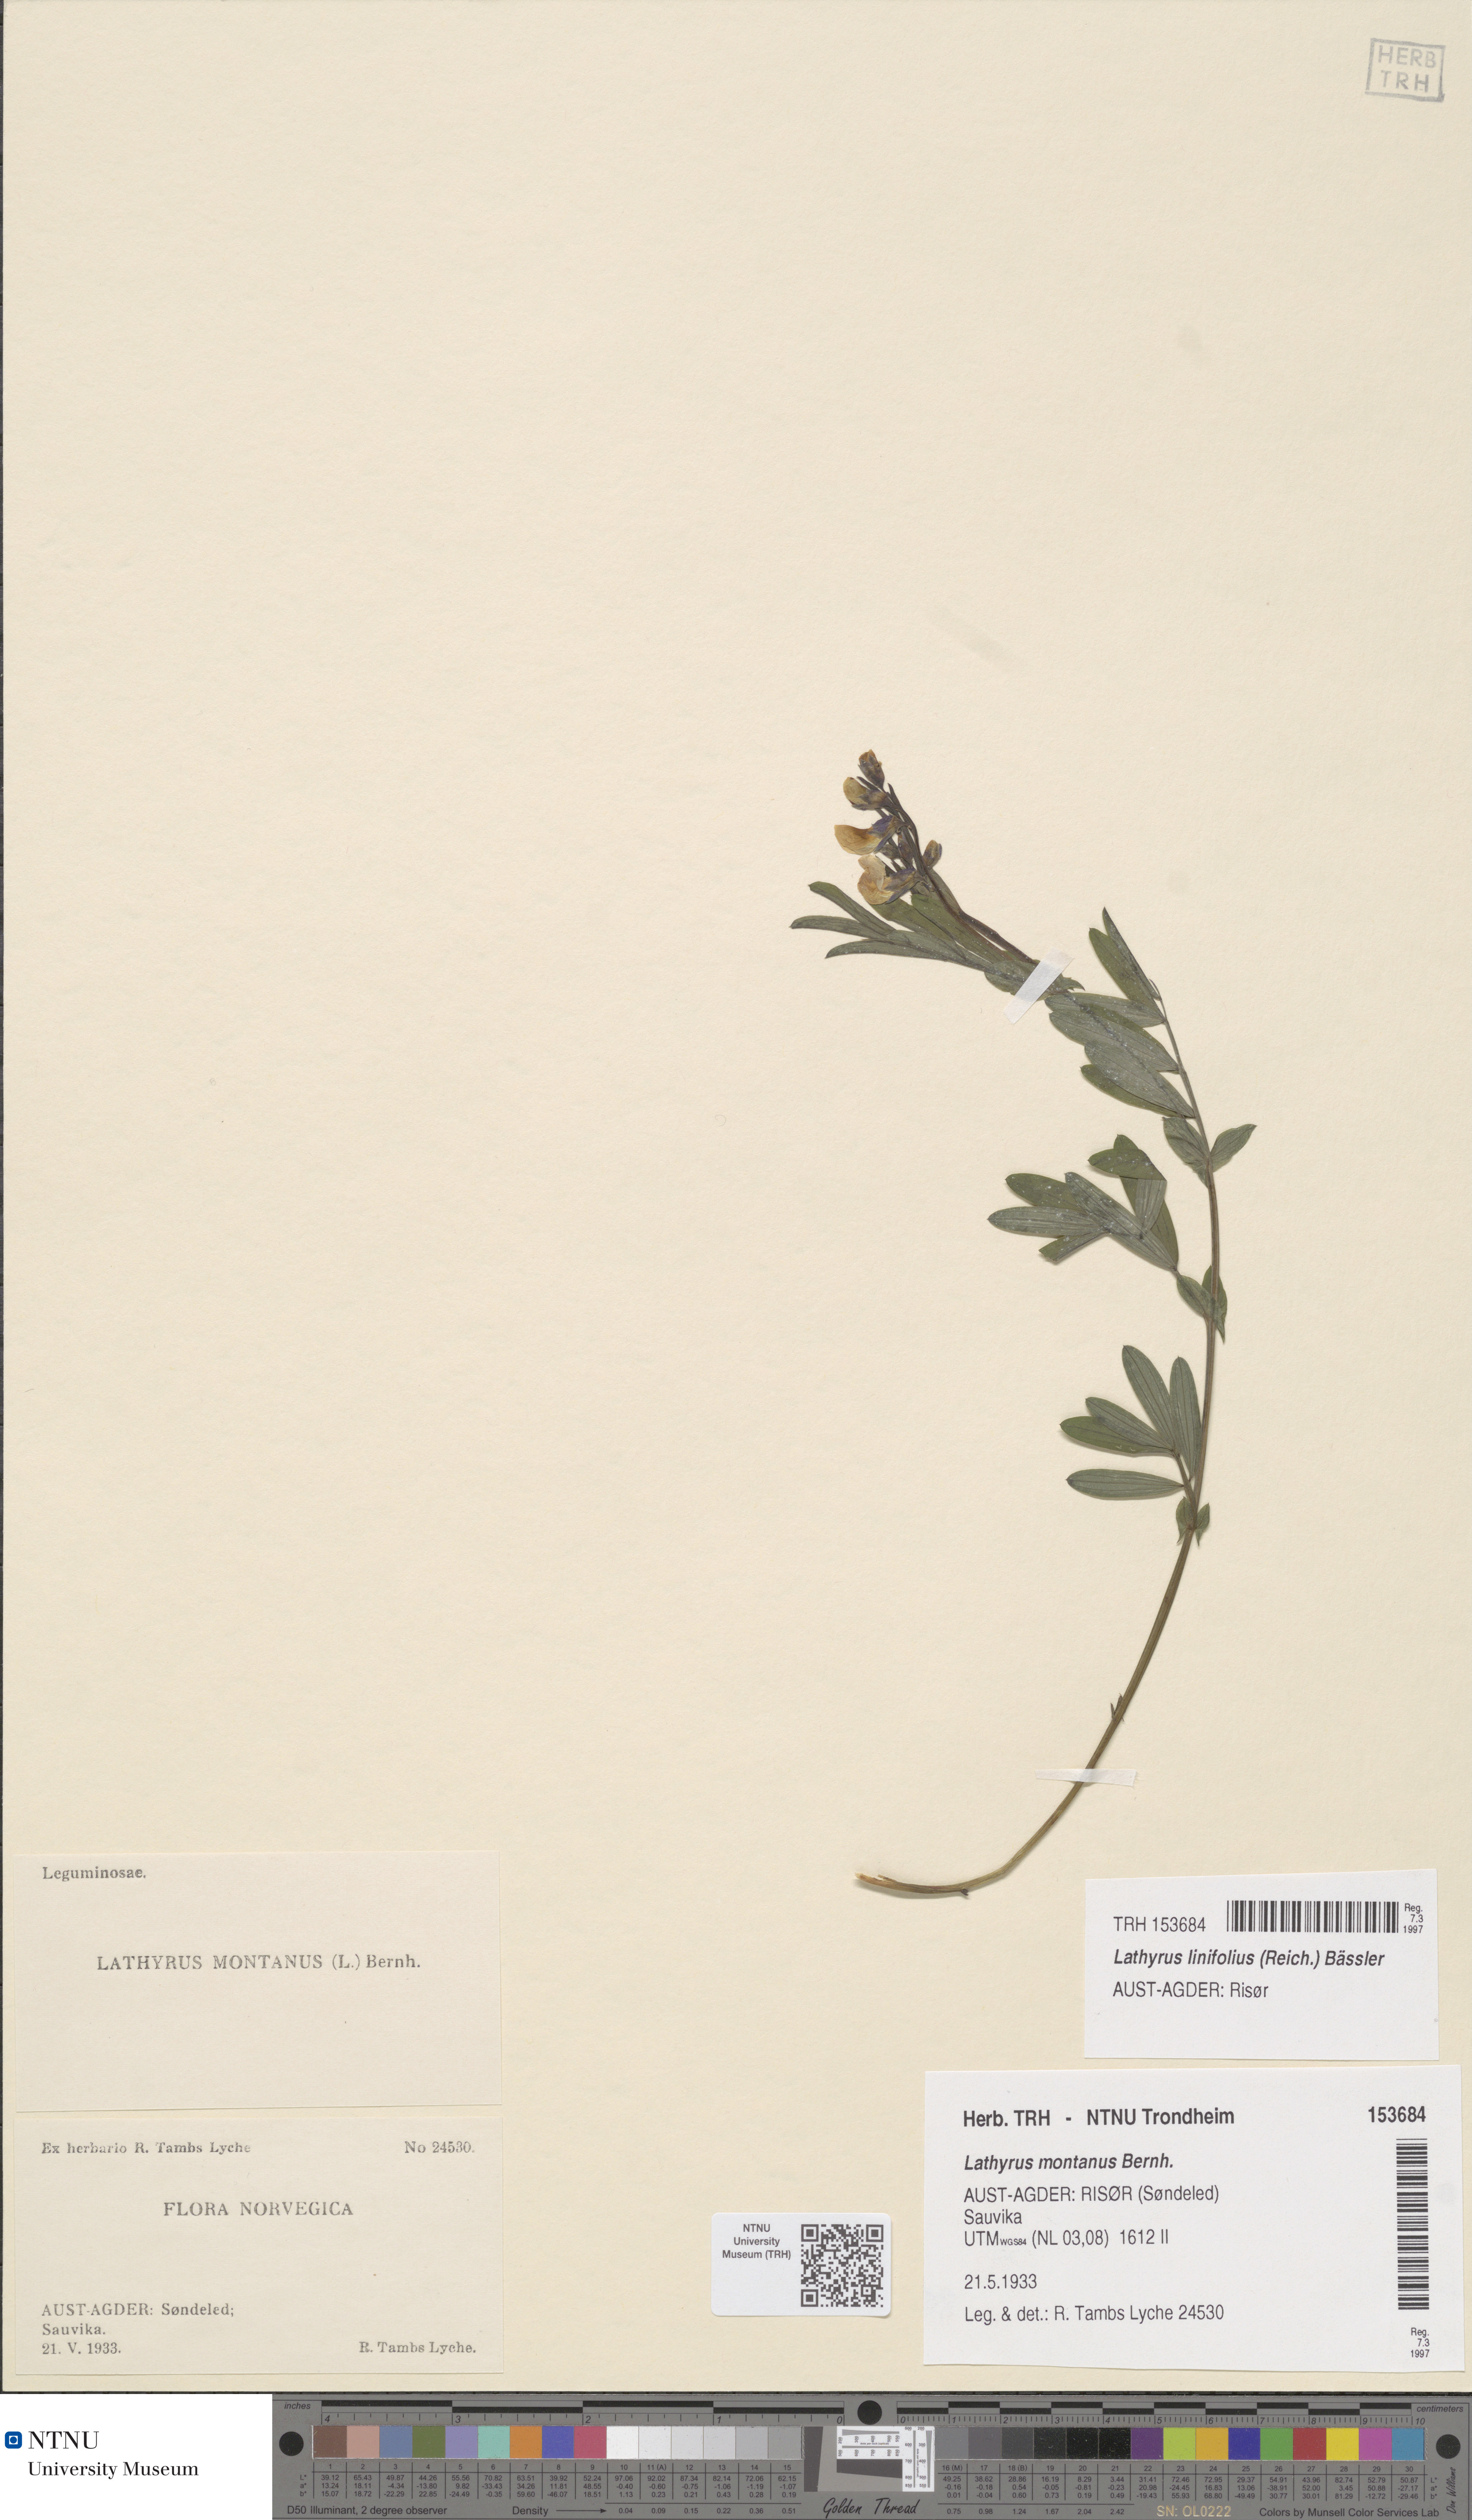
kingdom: Plantae
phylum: Tracheophyta
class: Magnoliopsida
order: Fabales
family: Fabaceae
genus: Lathyrus
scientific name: Lathyrus linifolius
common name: Bitter-vetch
